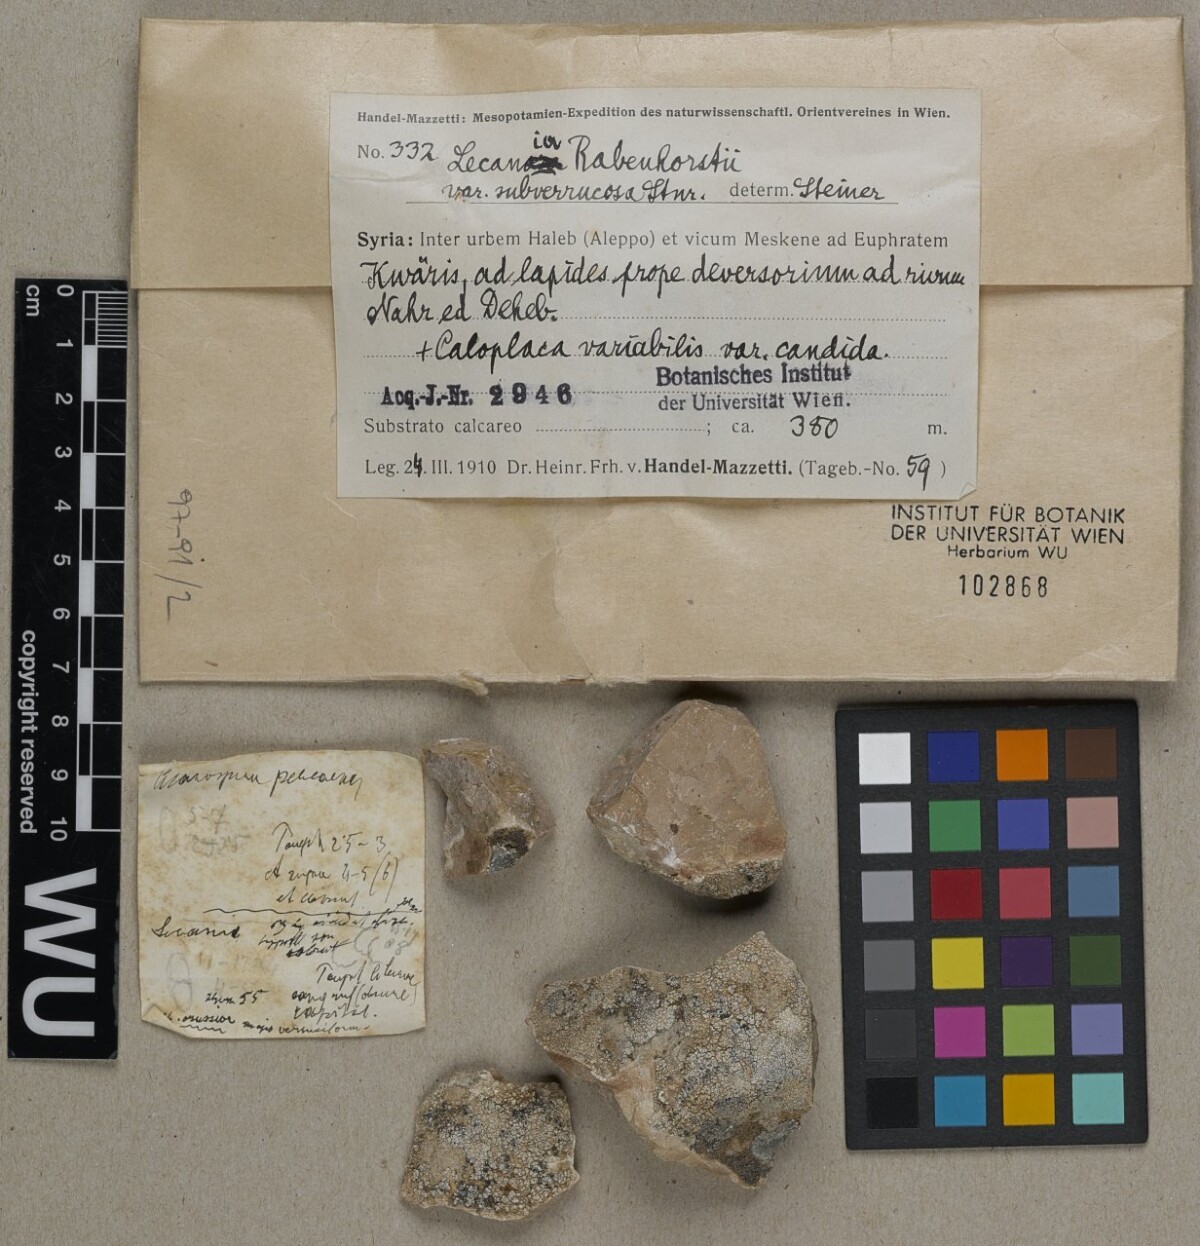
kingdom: Fungi
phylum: Ascomycota
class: Lecanoromycetes
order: Lecanorales
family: Ramalinaceae
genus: Lecania
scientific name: Lecania rabenhorstii
